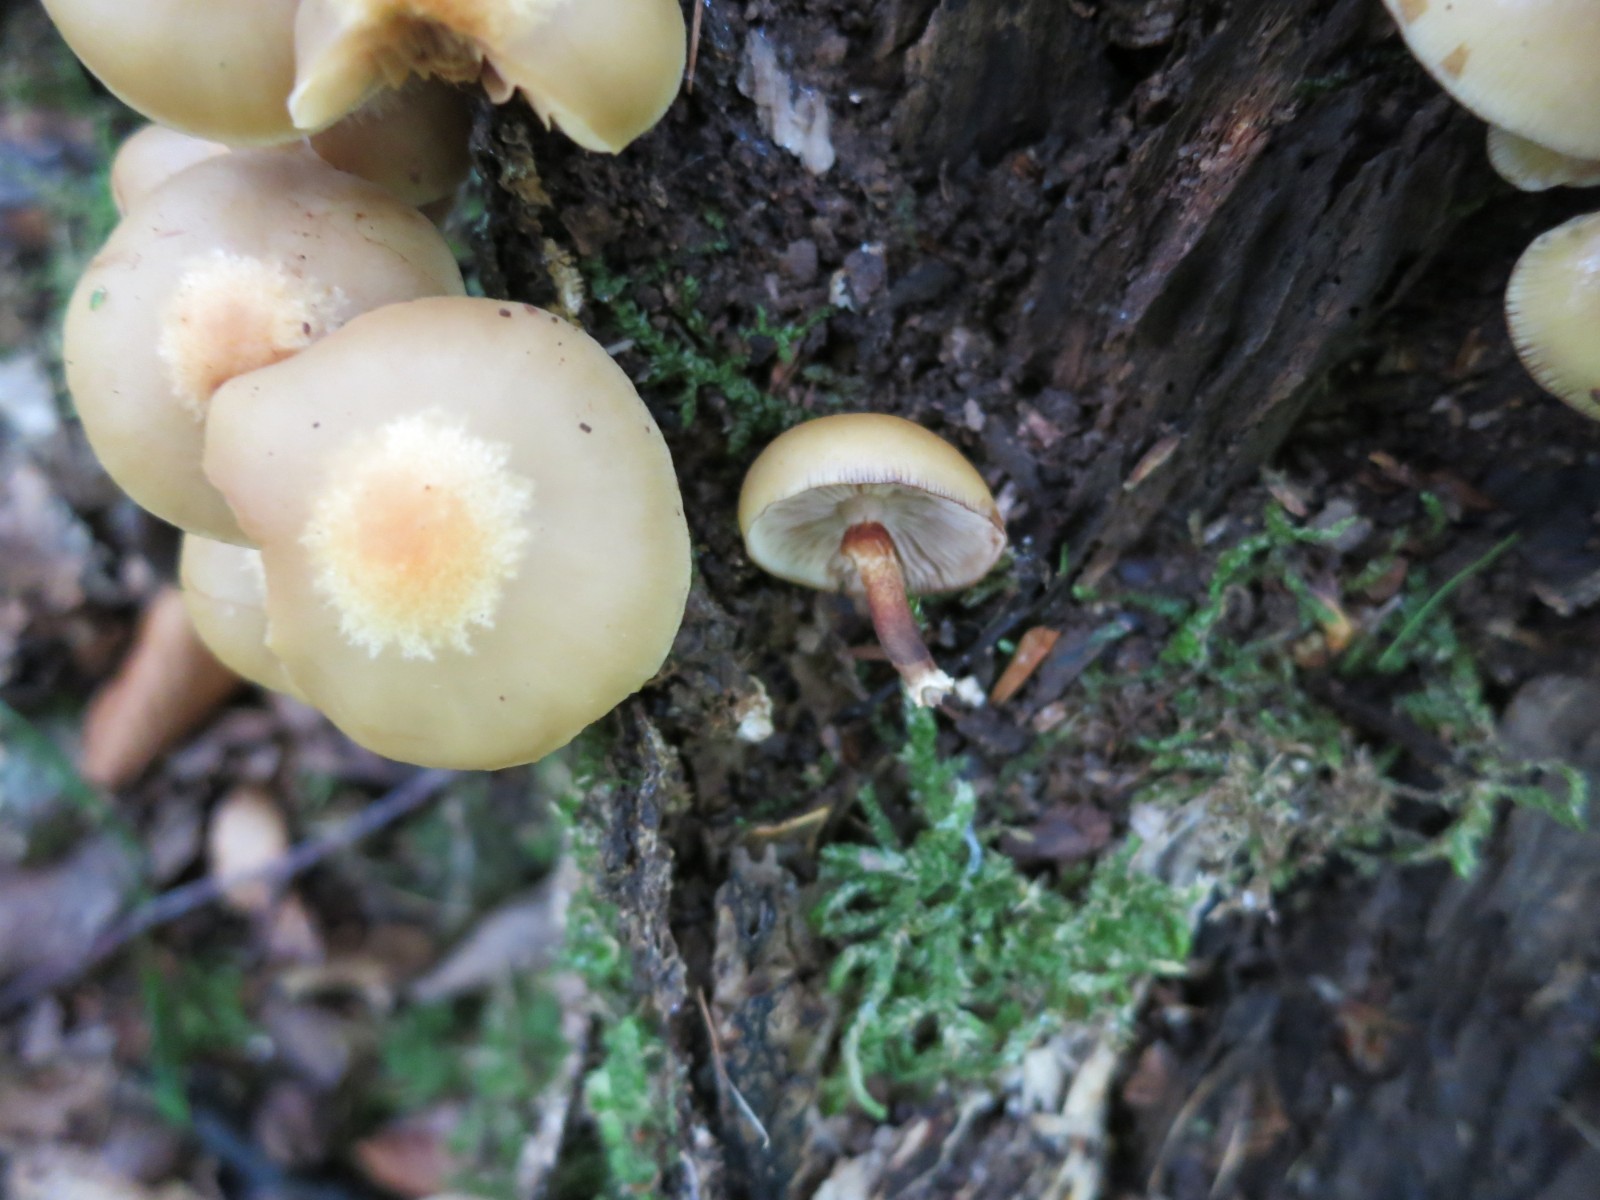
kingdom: Fungi
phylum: Basidiomycota
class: Agaricomycetes
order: Agaricales
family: Strophariaceae
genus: Kuehneromyces
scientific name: Kuehneromyces mutabilis
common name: foranderlig skælhat
